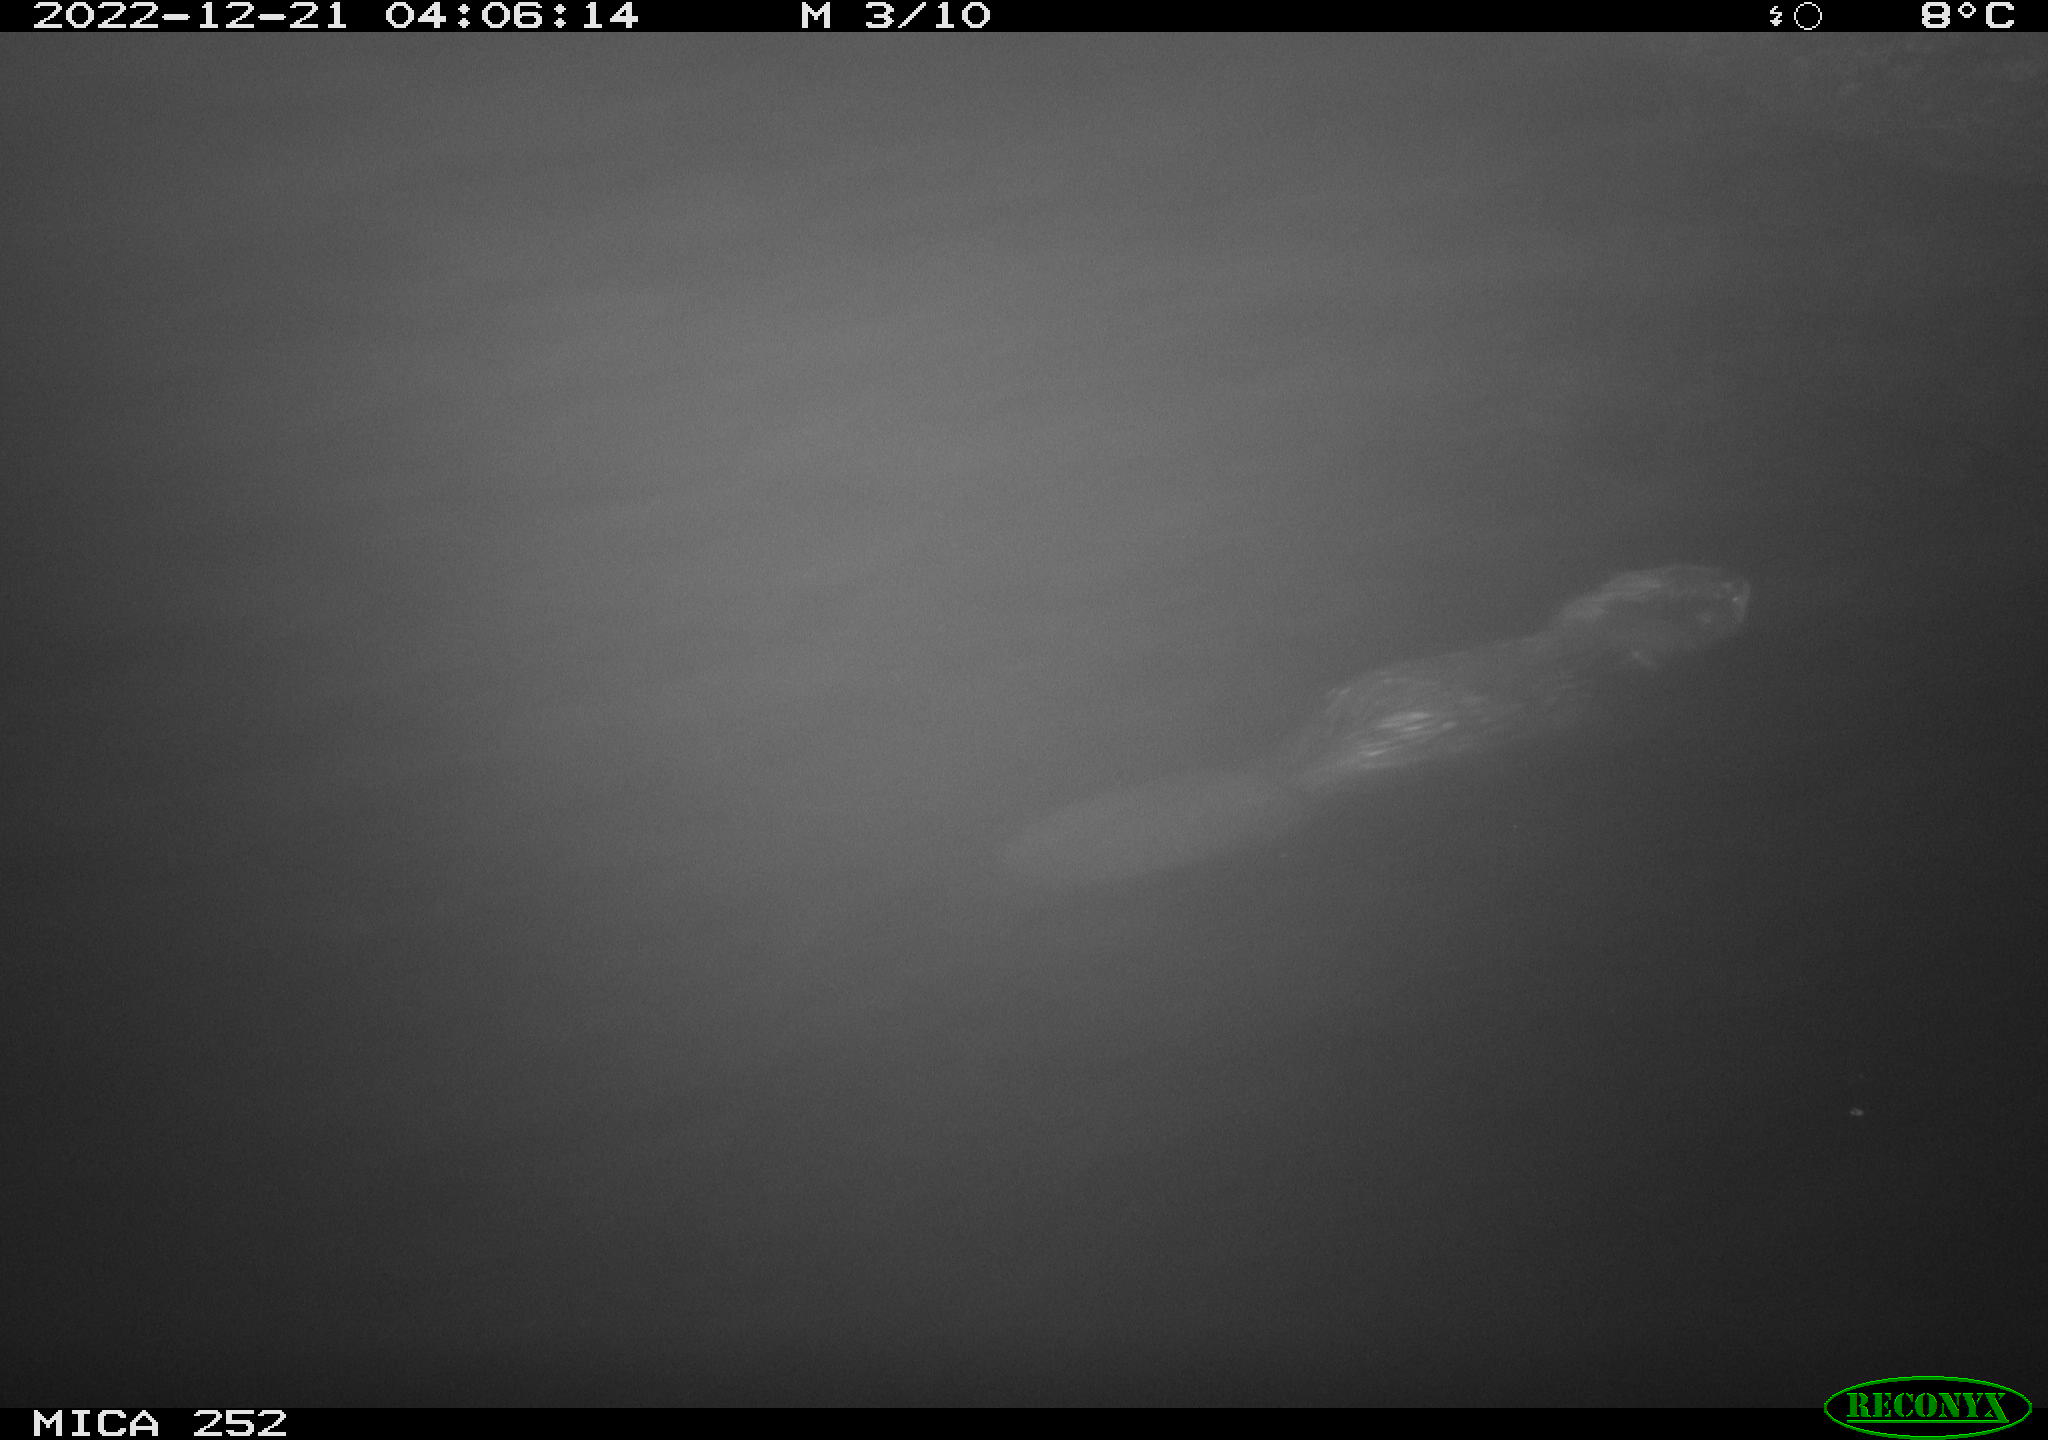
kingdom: Animalia
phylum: Chordata
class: Mammalia
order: Rodentia
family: Castoridae
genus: Castor
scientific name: Castor fiber
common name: Eurasian beaver
